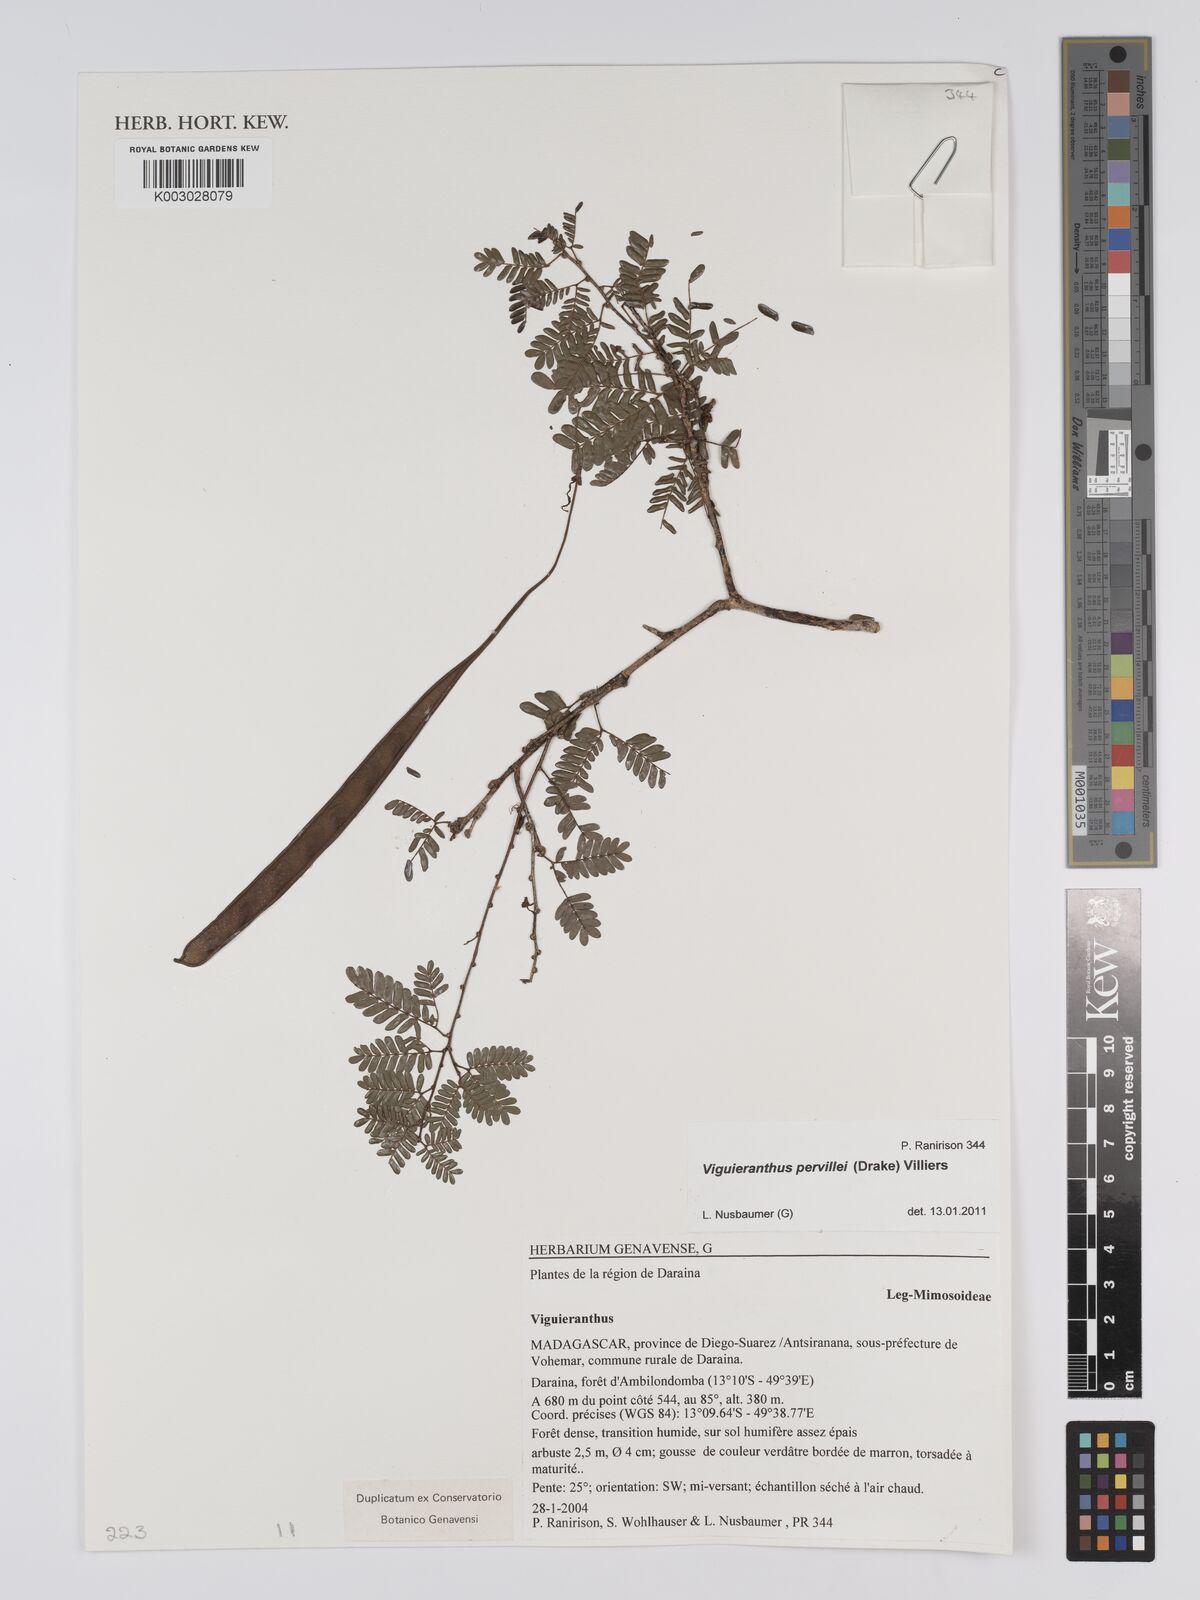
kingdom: Plantae
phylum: Tracheophyta
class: Magnoliopsida
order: Fabales
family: Fabaceae
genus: Viguieranthus
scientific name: Viguieranthus pervillei
